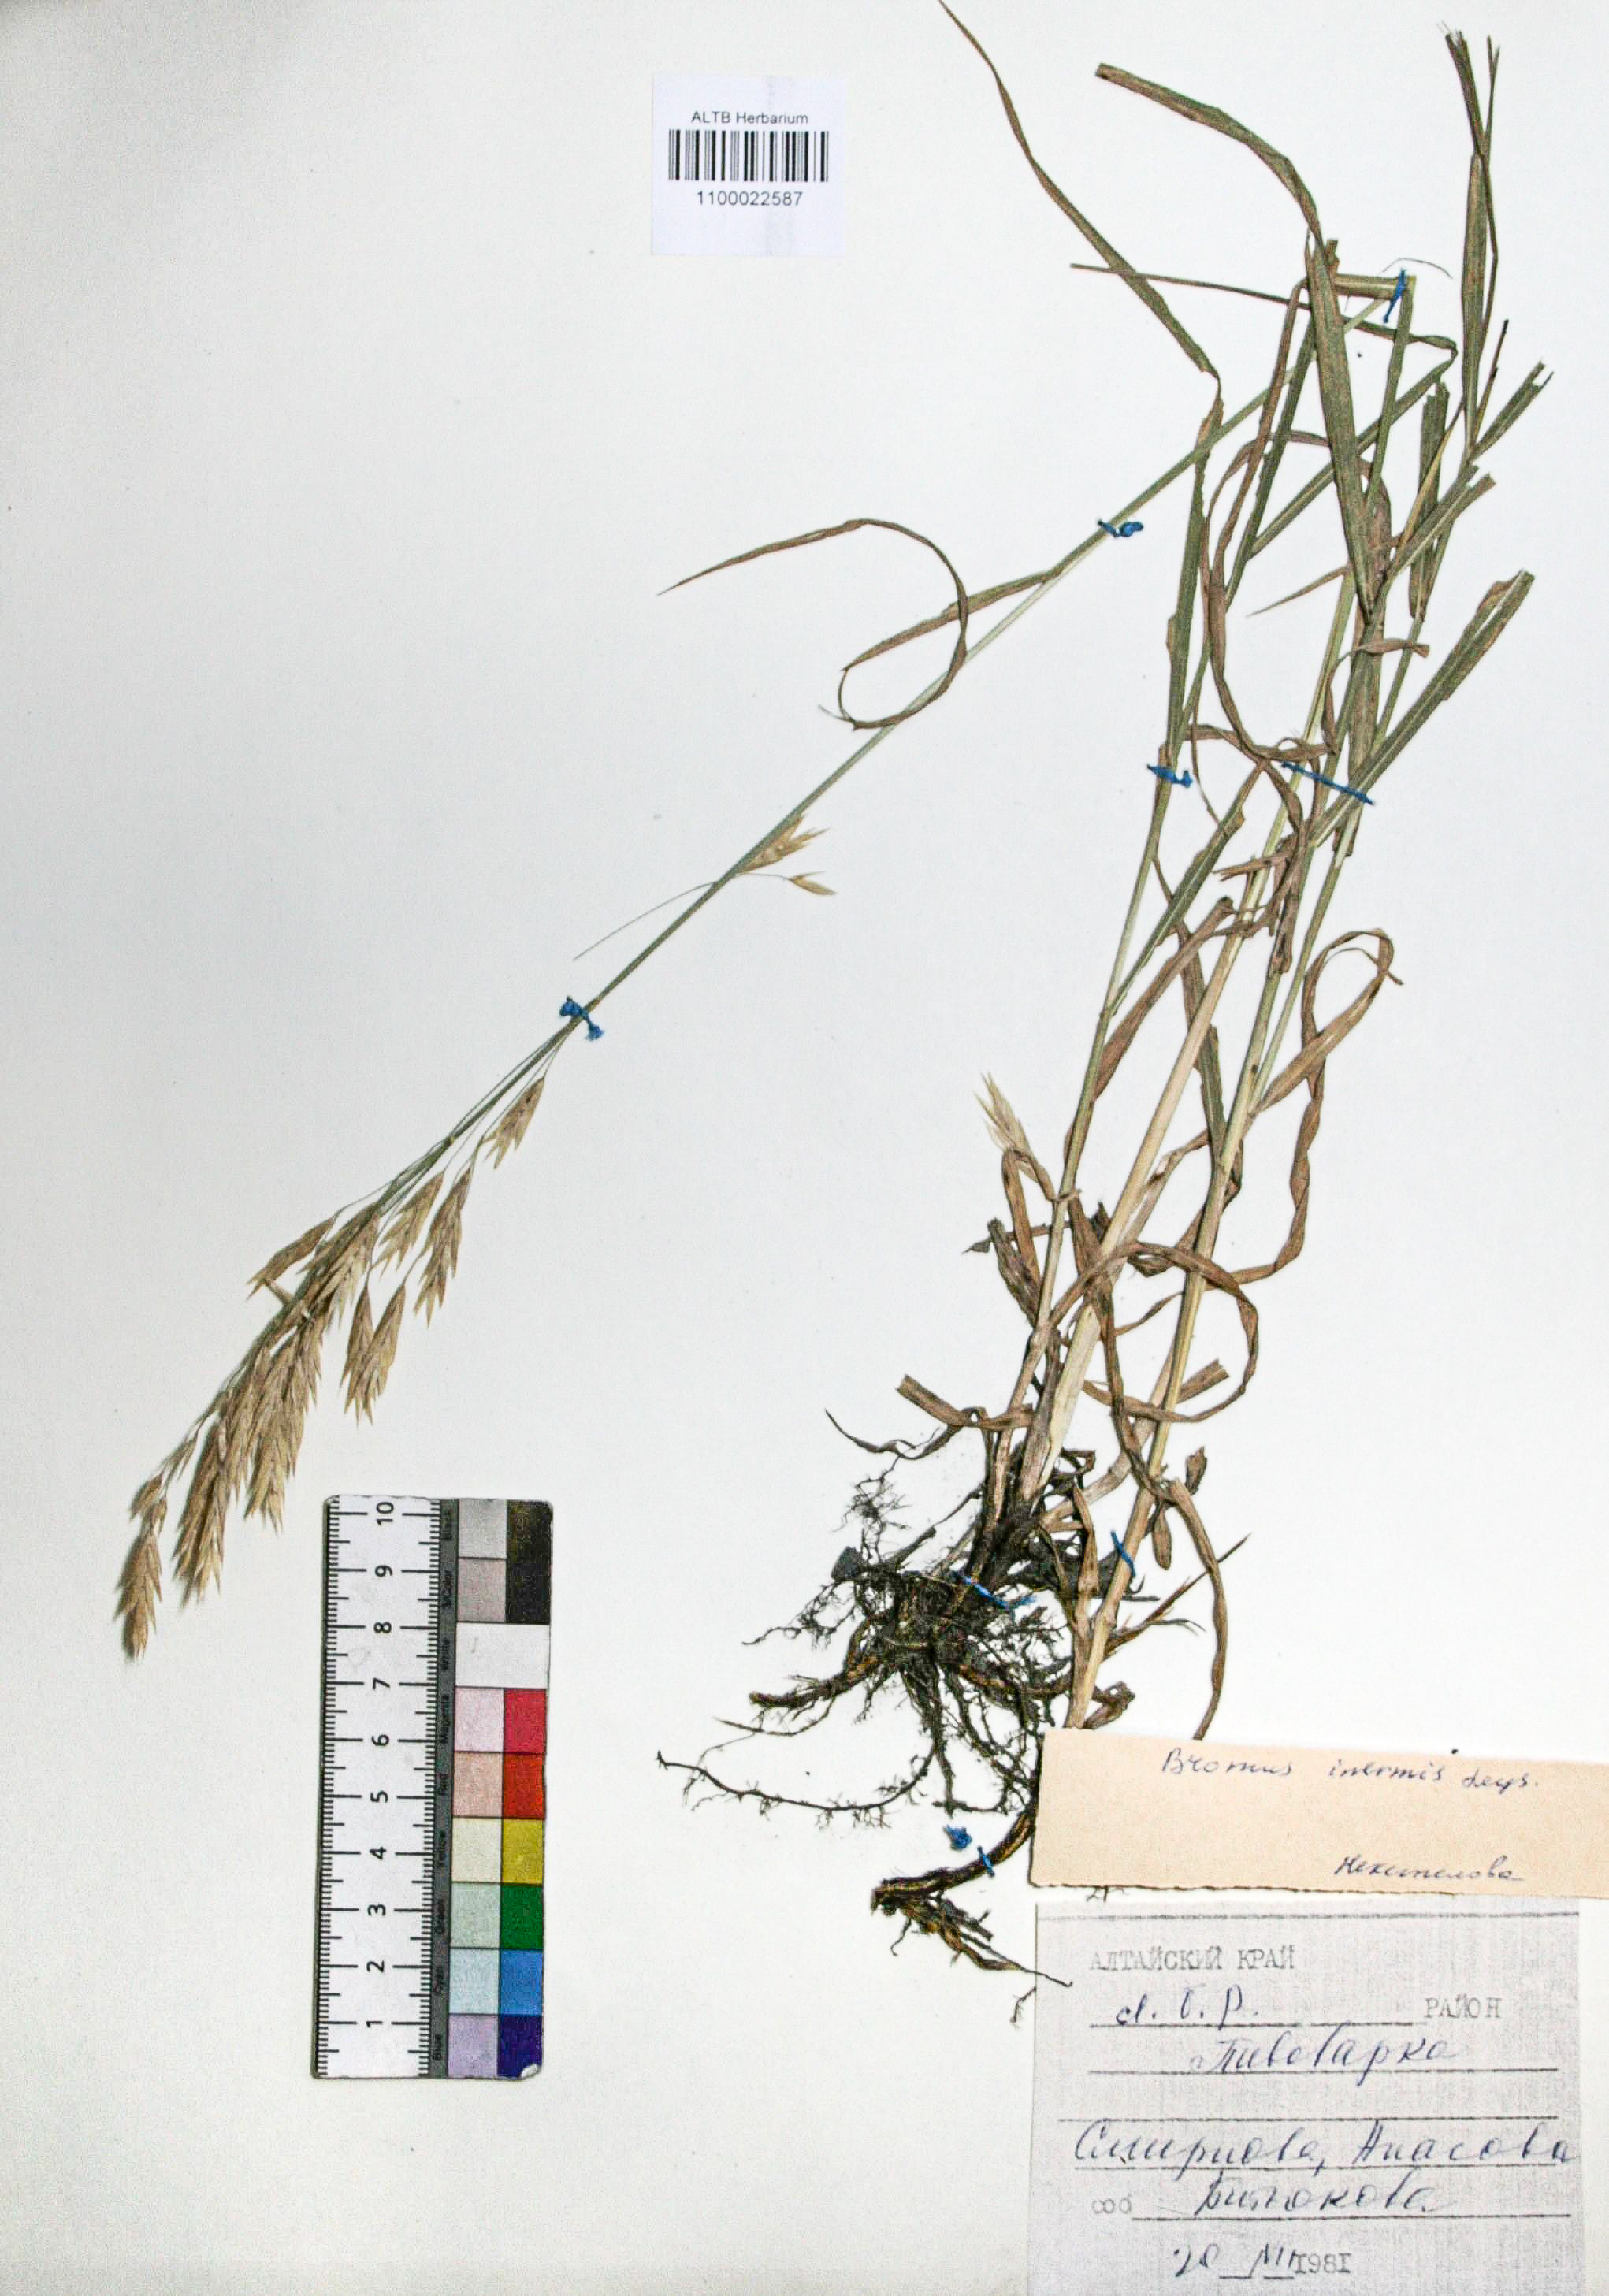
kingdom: Plantae
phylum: Tracheophyta
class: Liliopsida
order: Poales
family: Poaceae
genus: Bromus
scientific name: Bromus inermis
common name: Smooth brome
